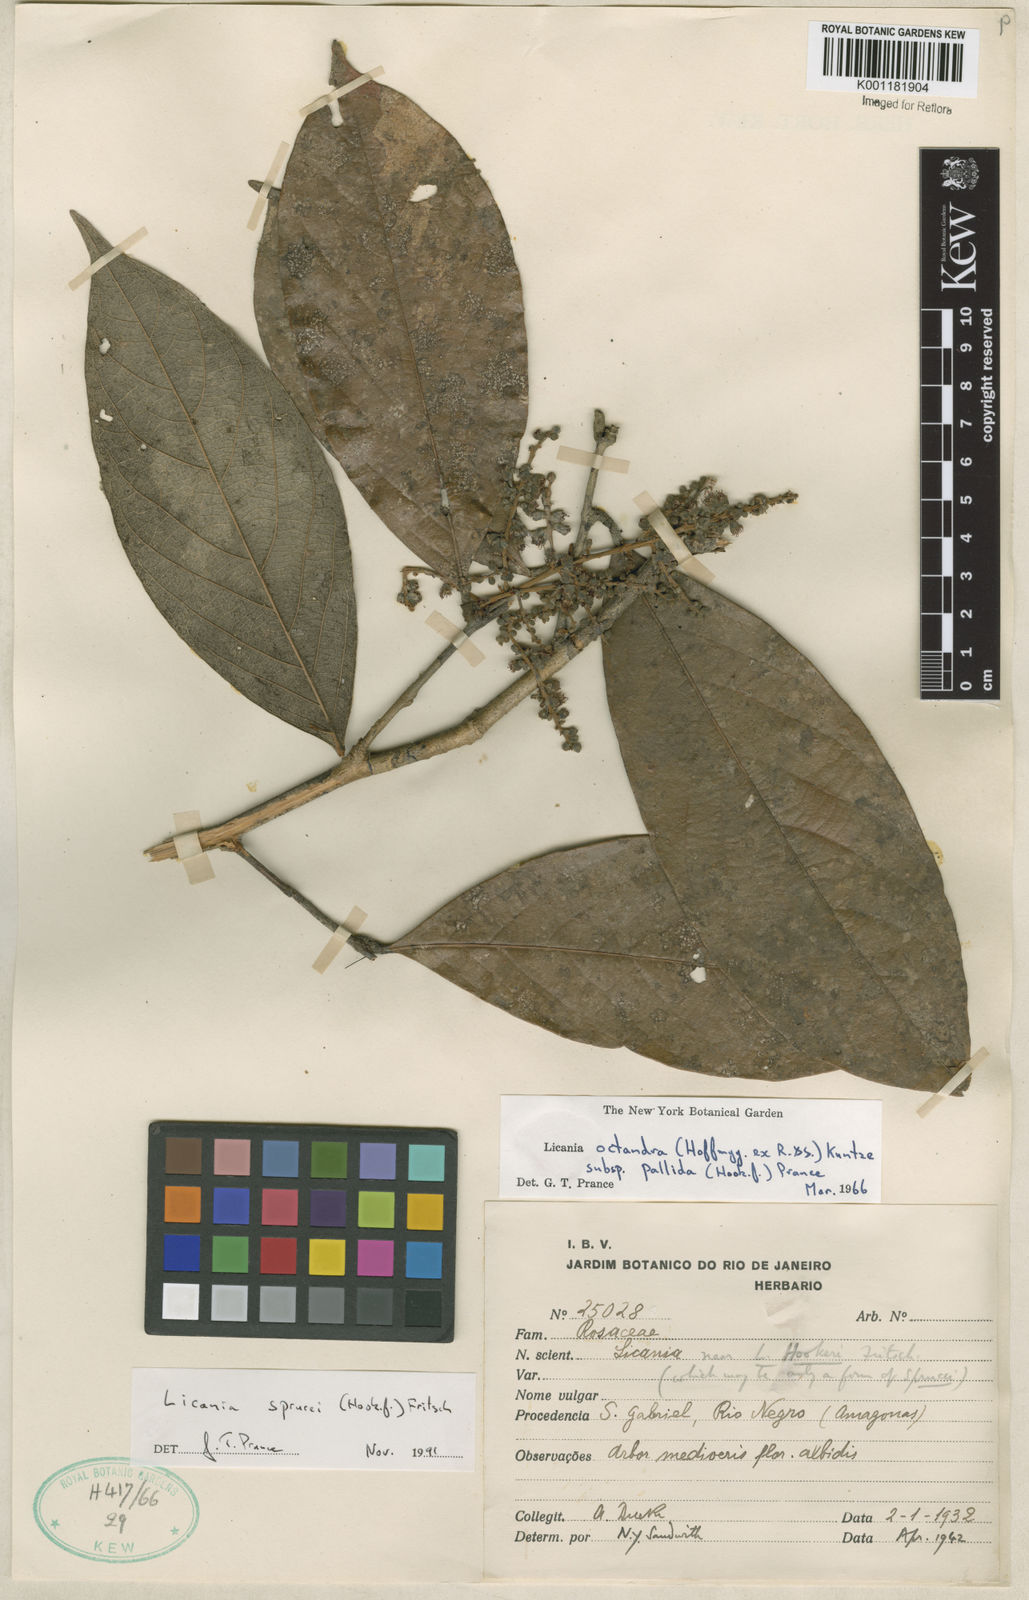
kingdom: Plantae
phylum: Tracheophyta
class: Magnoliopsida
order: Malpighiales
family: Chrysobalanaceae
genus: Leptobalanus
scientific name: Leptobalanus sprucei
